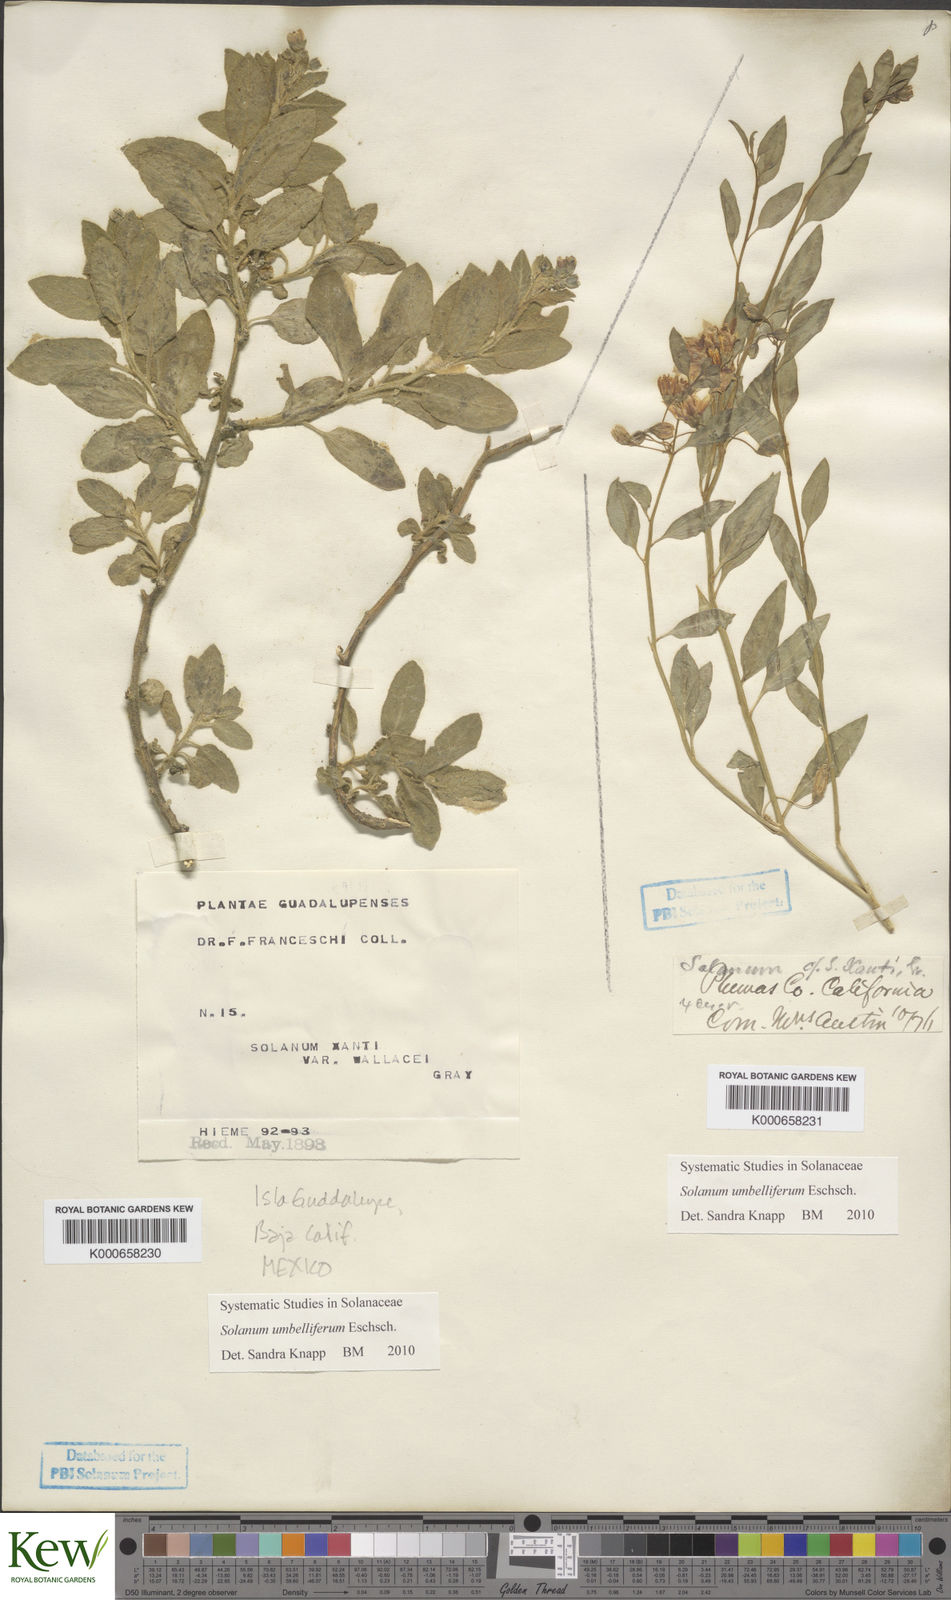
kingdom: Plantae
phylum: Tracheophyta
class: Magnoliopsida
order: Solanales
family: Solanaceae
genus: Solanum
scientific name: Solanum umbelliferum
